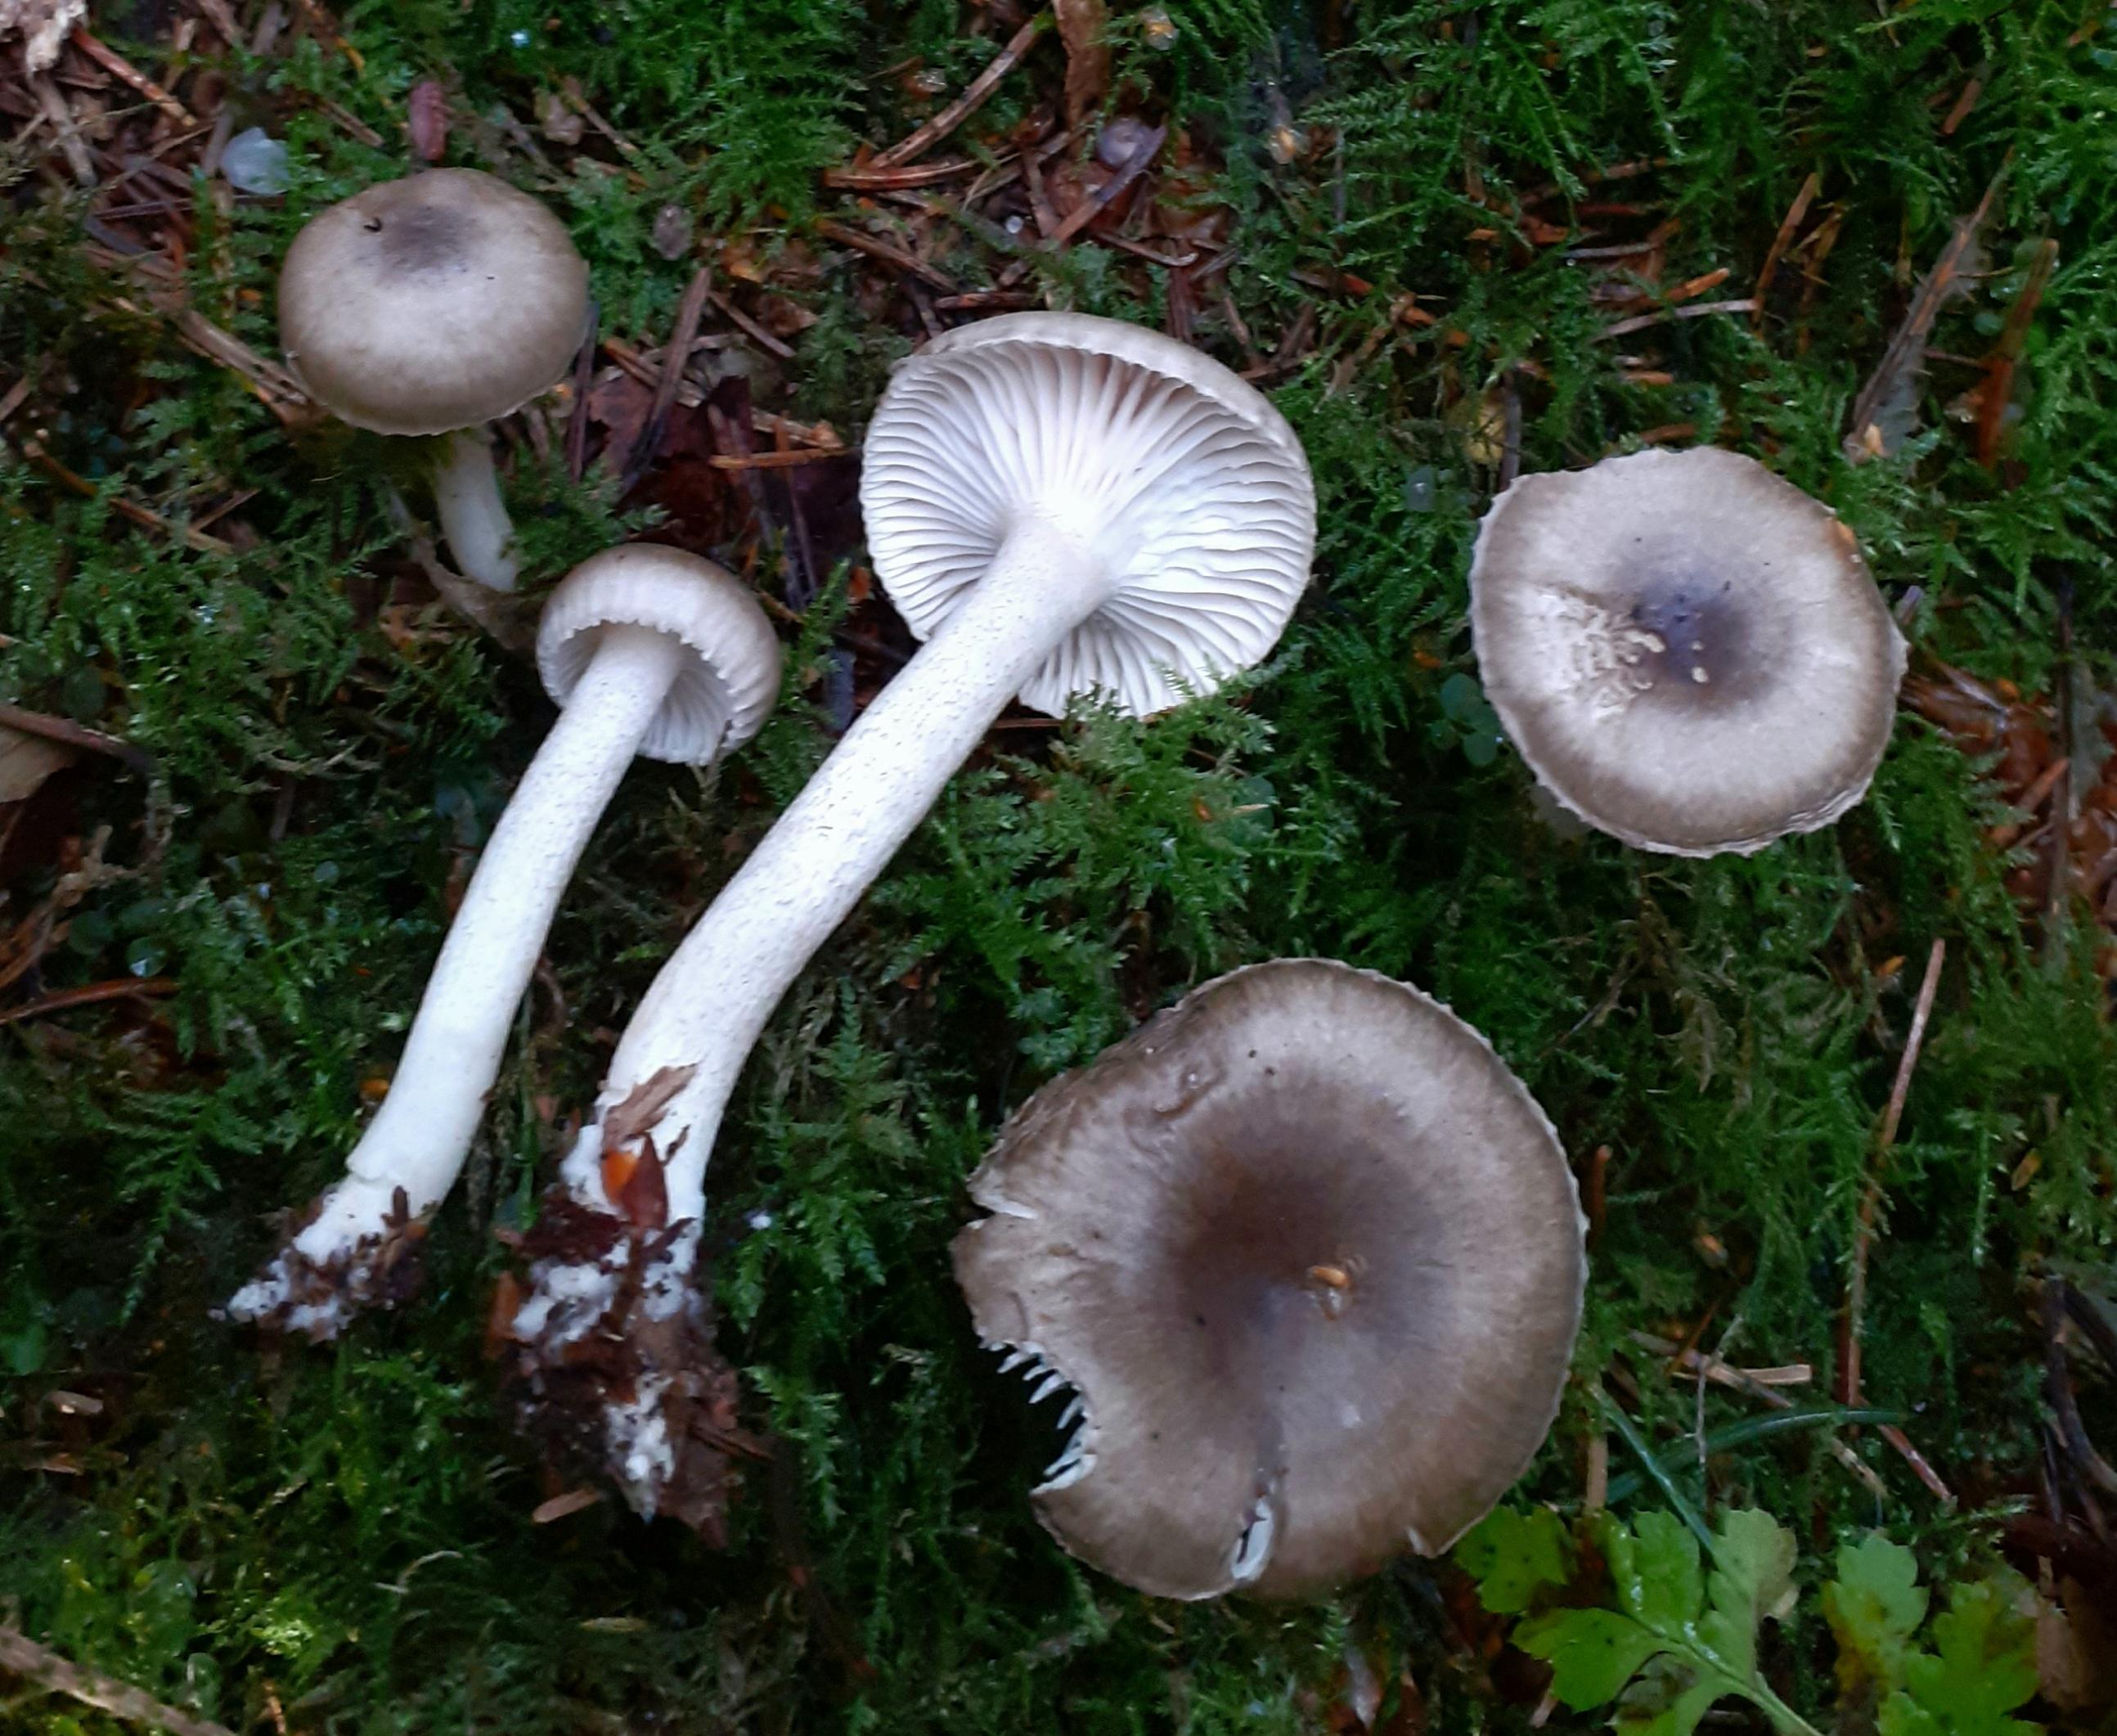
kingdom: Fungi
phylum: Basidiomycota
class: Agaricomycetes
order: Agaricales
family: Hygrophoraceae
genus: Hygrophorus
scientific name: Hygrophorus pustulatus
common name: mørkprikket sneglehat
